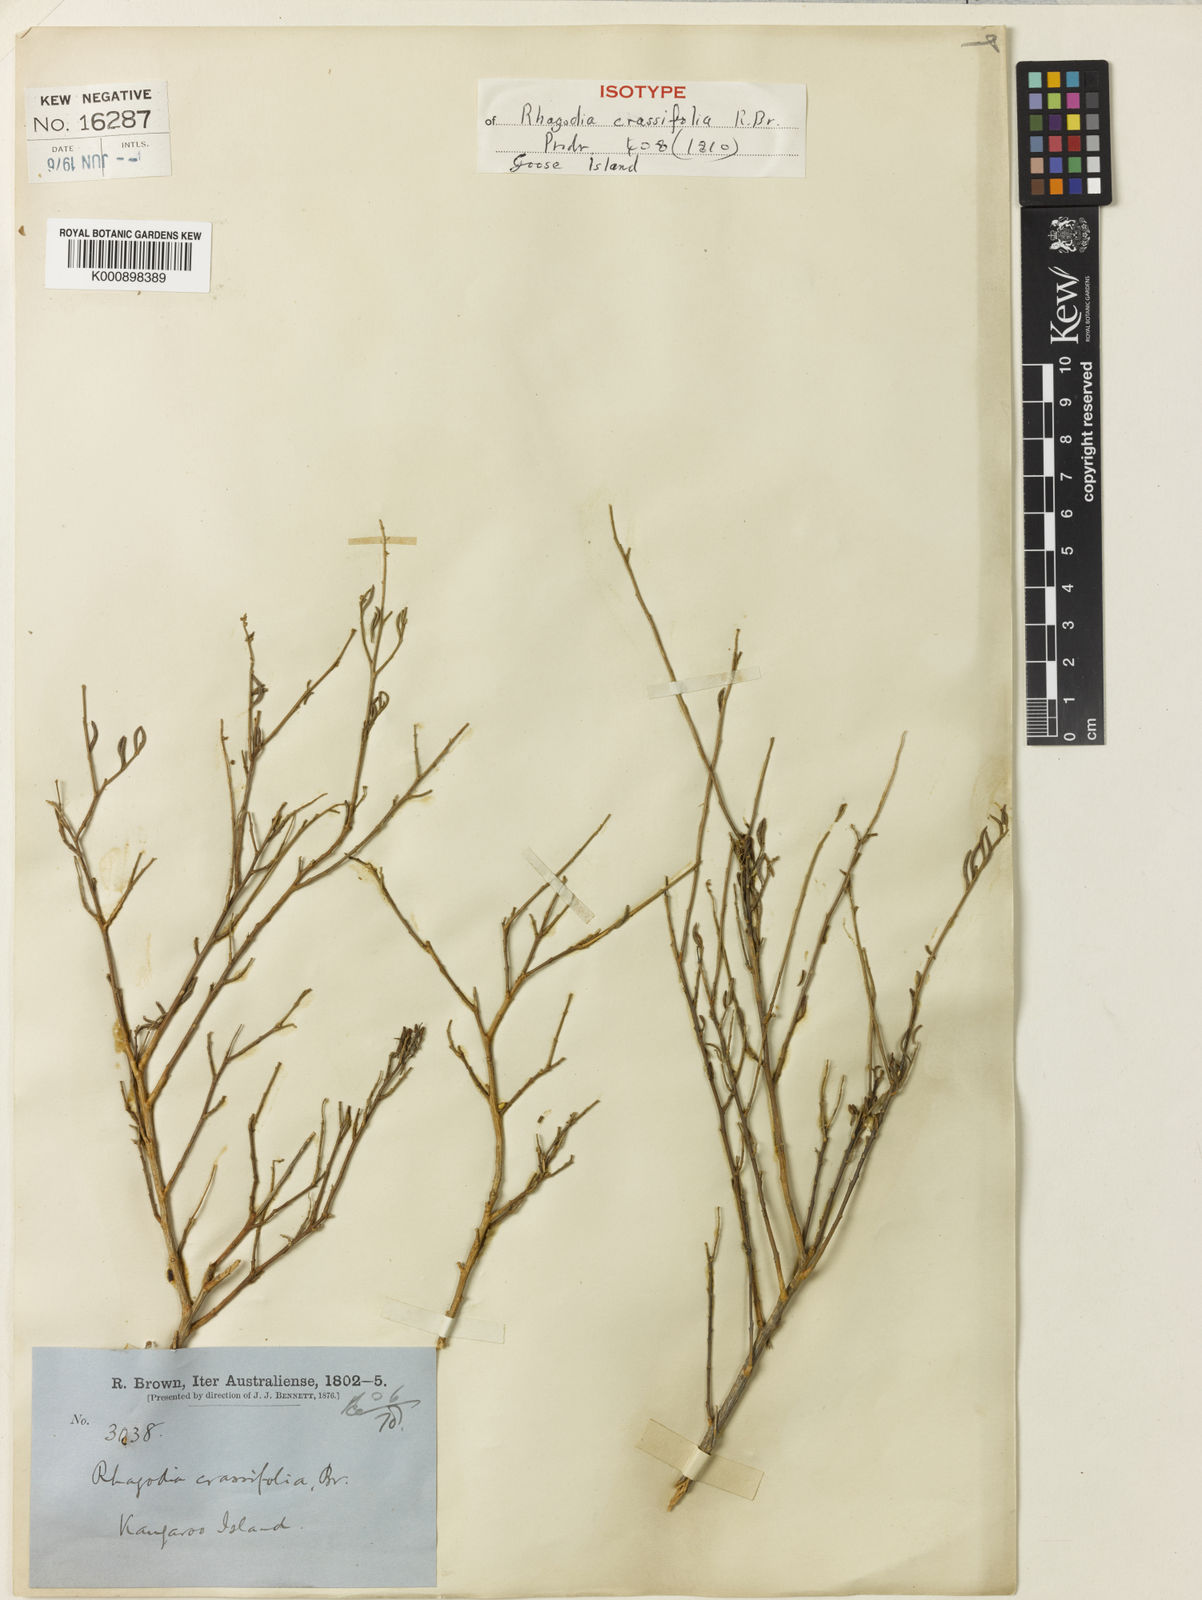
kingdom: Plantae
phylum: Tracheophyta
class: Magnoliopsida
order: Caryophyllales
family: Amaranthaceae
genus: Chenopodium
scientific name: Chenopodium wilsonii
